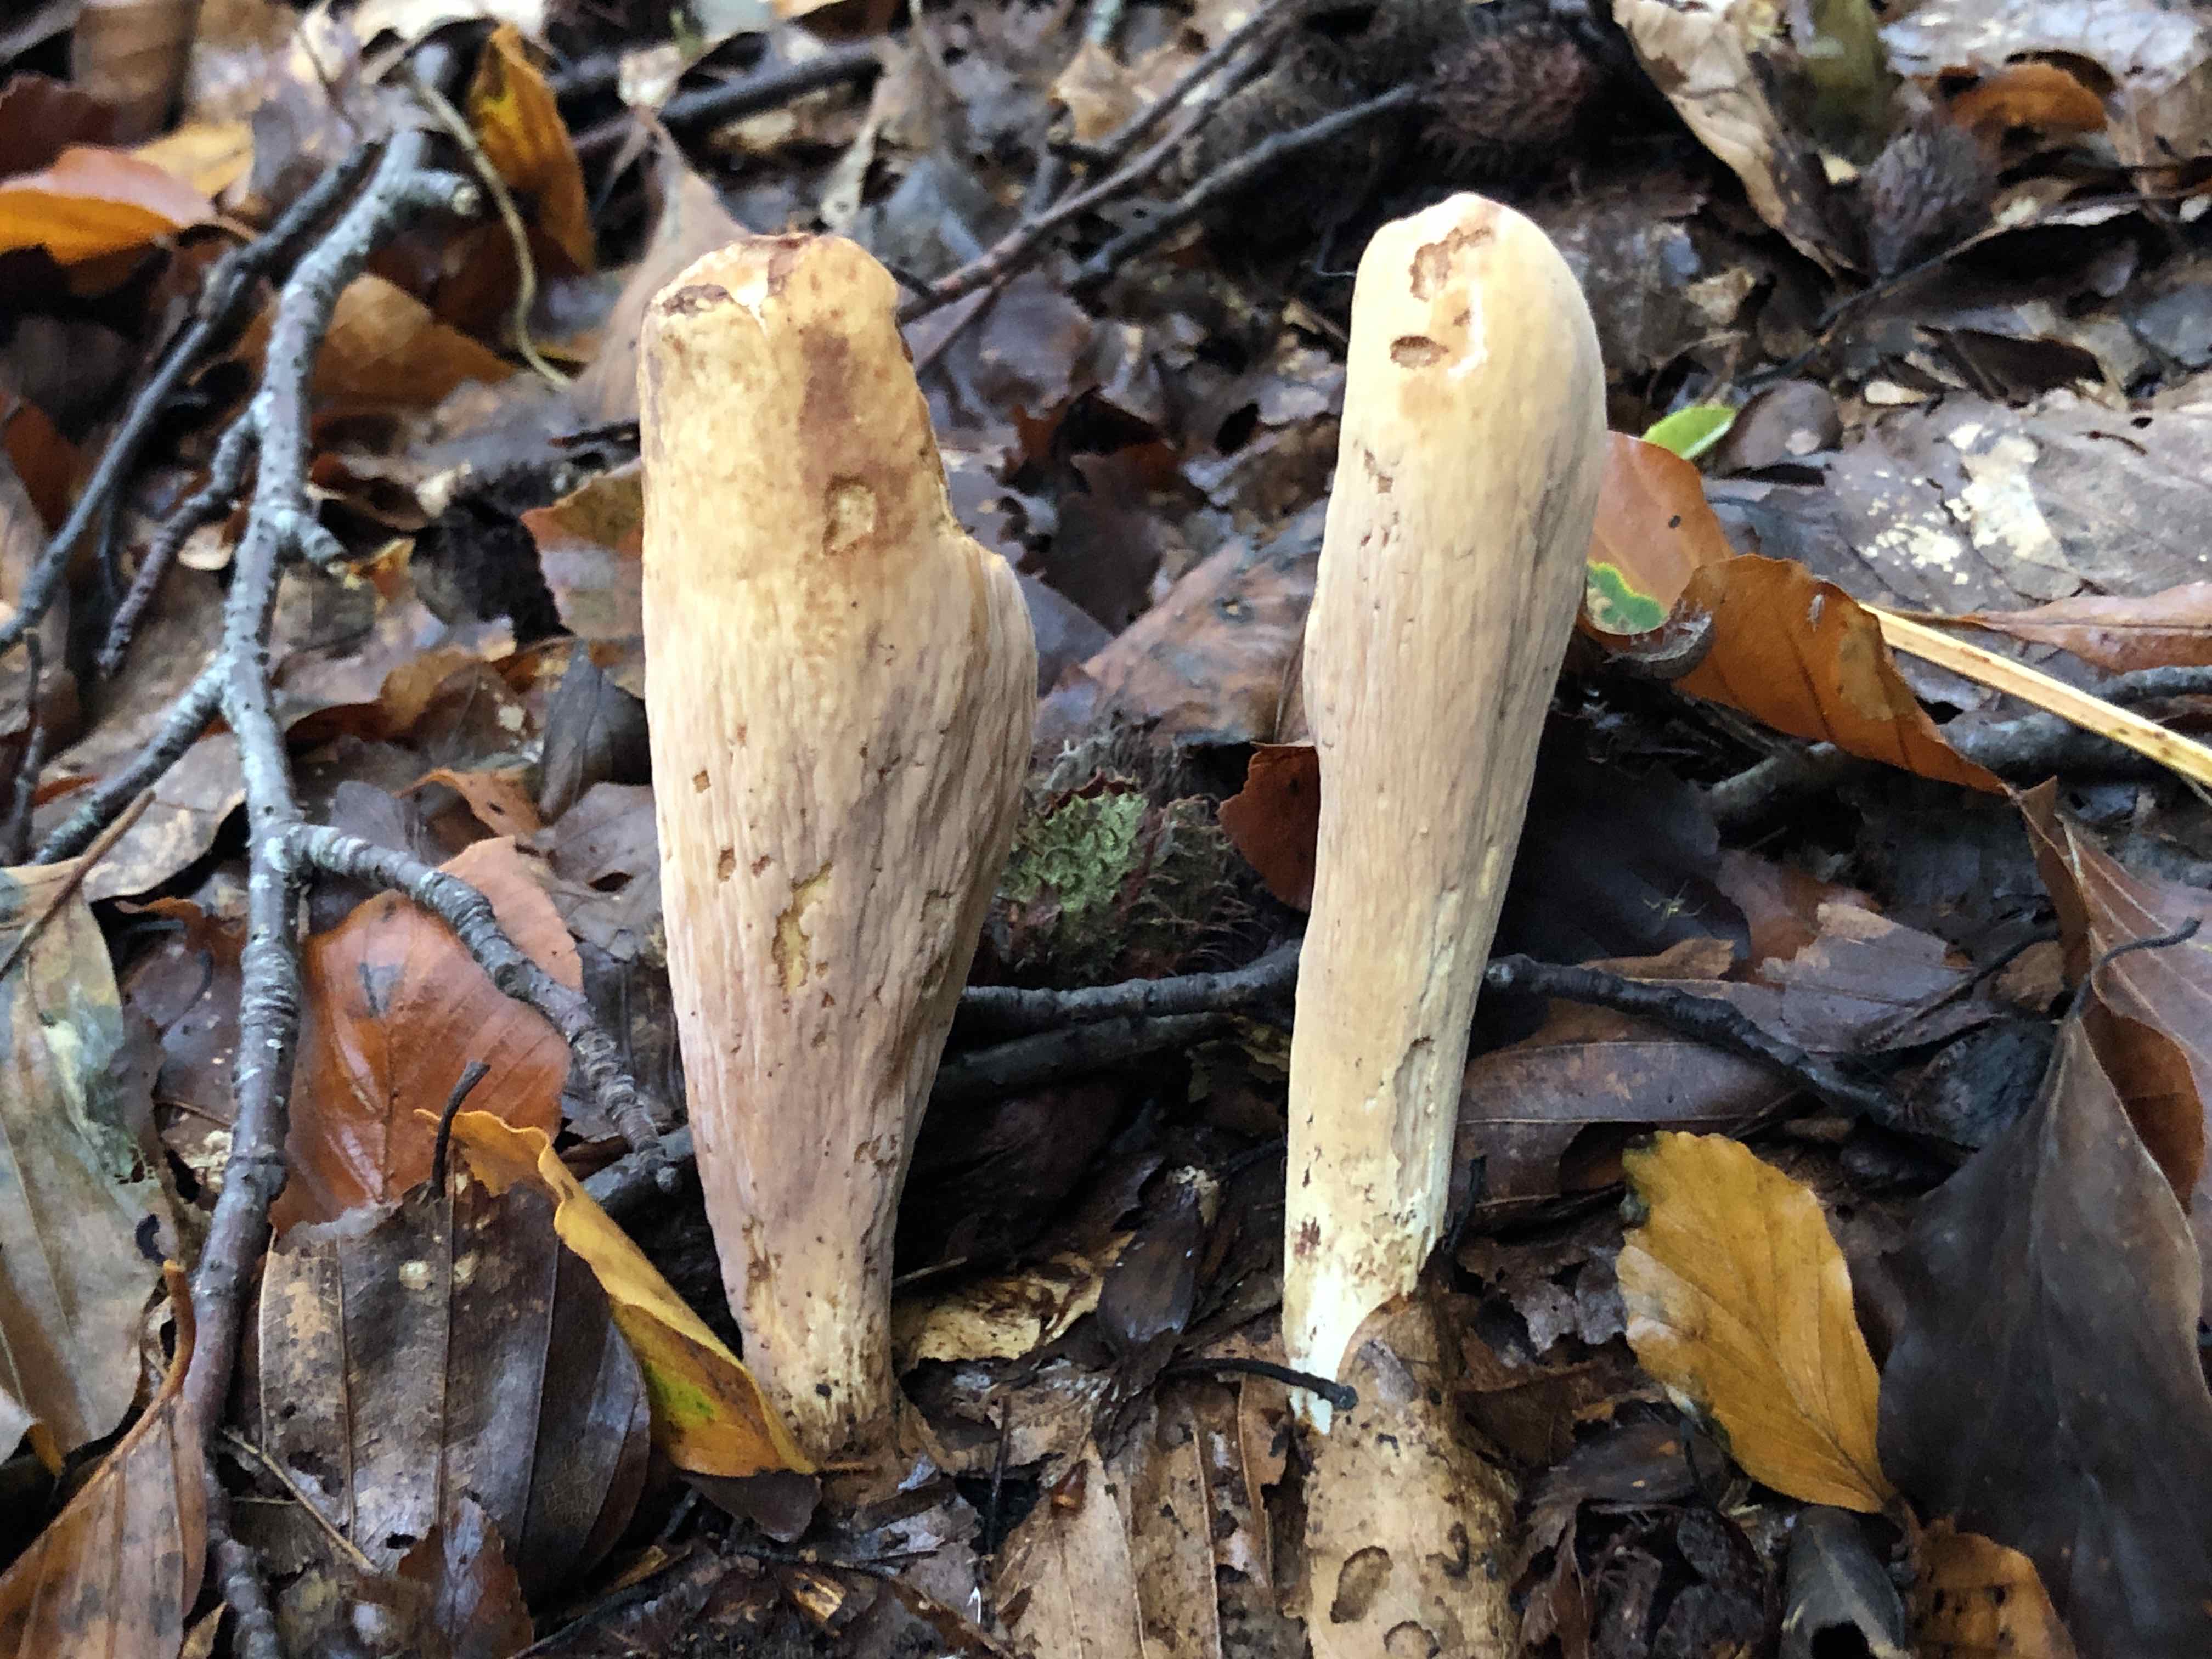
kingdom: Fungi
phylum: Basidiomycota
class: Agaricomycetes
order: Gomphales
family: Clavariadelphaceae
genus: Clavariadelphus
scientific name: Clavariadelphus pistillaris
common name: herkules-kæmpekølle
